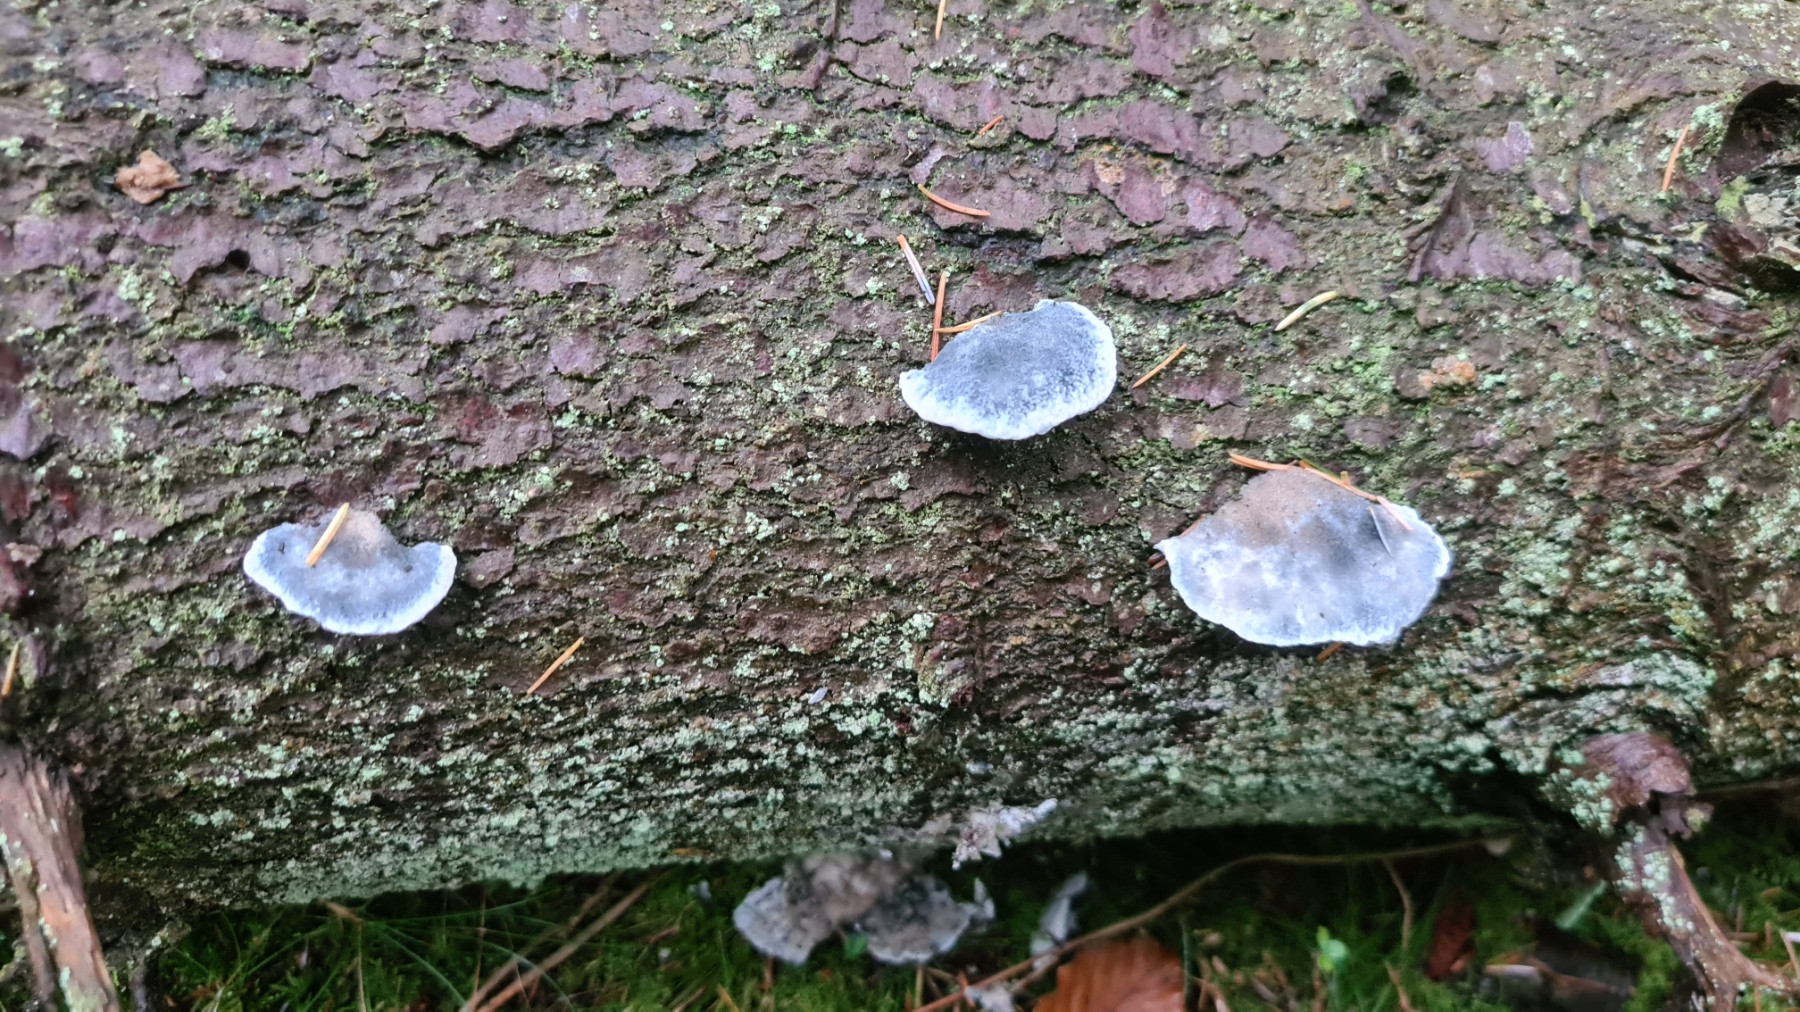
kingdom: Fungi
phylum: Basidiomycota
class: Agaricomycetes
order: Polyporales
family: Polyporaceae
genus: Cyanosporus
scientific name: Cyanosporus caesius
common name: blålig kødporesvamp
